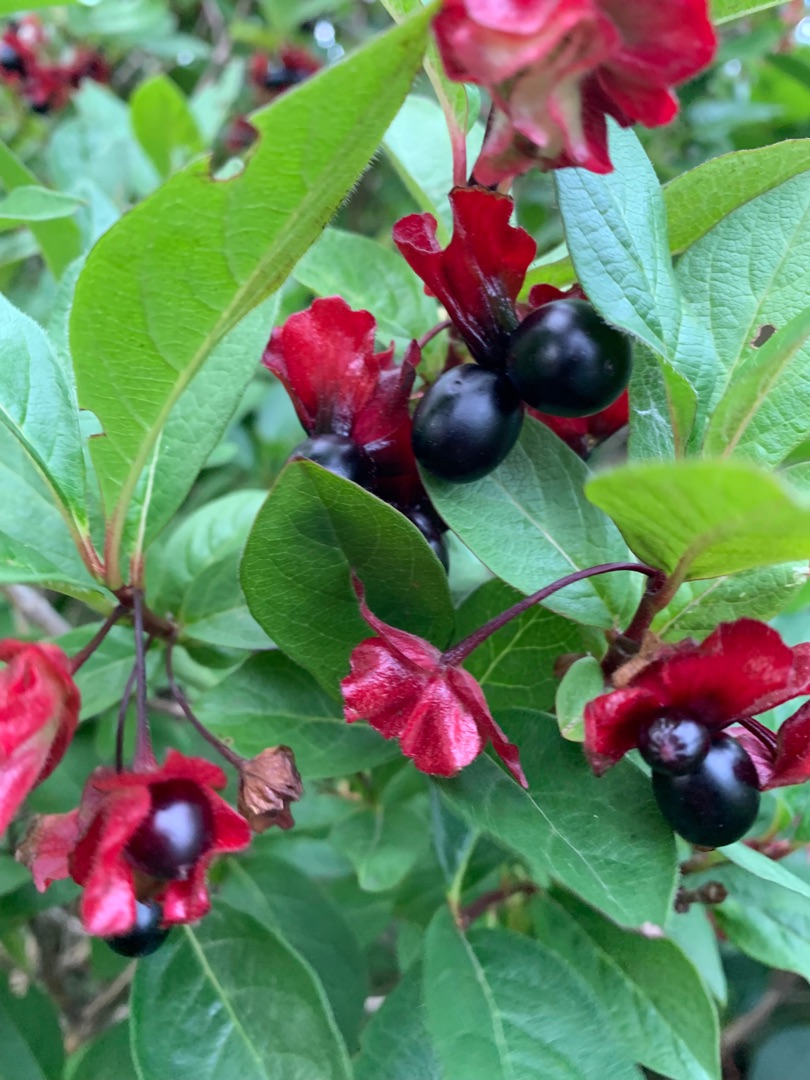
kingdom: Plantae
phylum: Tracheophyta
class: Magnoliopsida
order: Dipsacales
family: Caprifoliaceae
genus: Lonicera
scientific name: Lonicera involucrata
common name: Svøb-gedeblad
